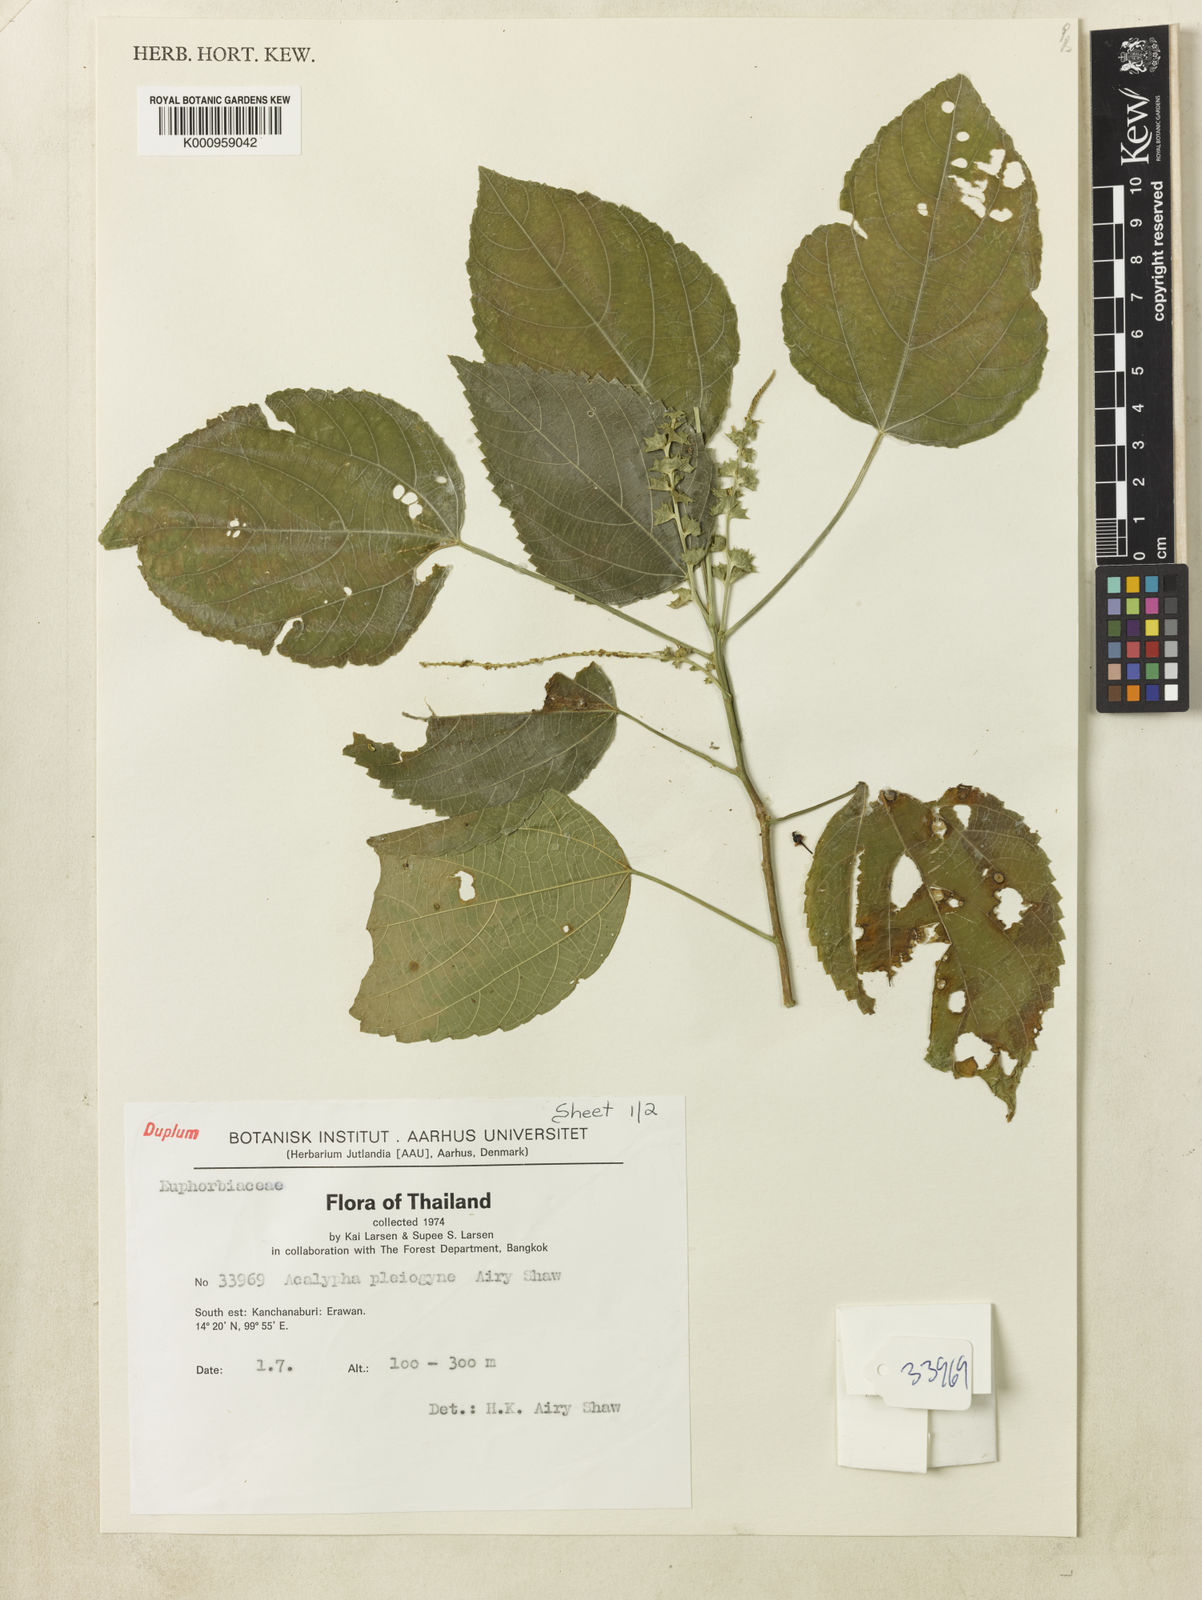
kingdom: Plantae
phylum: Tracheophyta
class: Magnoliopsida
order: Malpighiales
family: Euphorbiaceae
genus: Acalypha
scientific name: Acalypha pleiogyne
